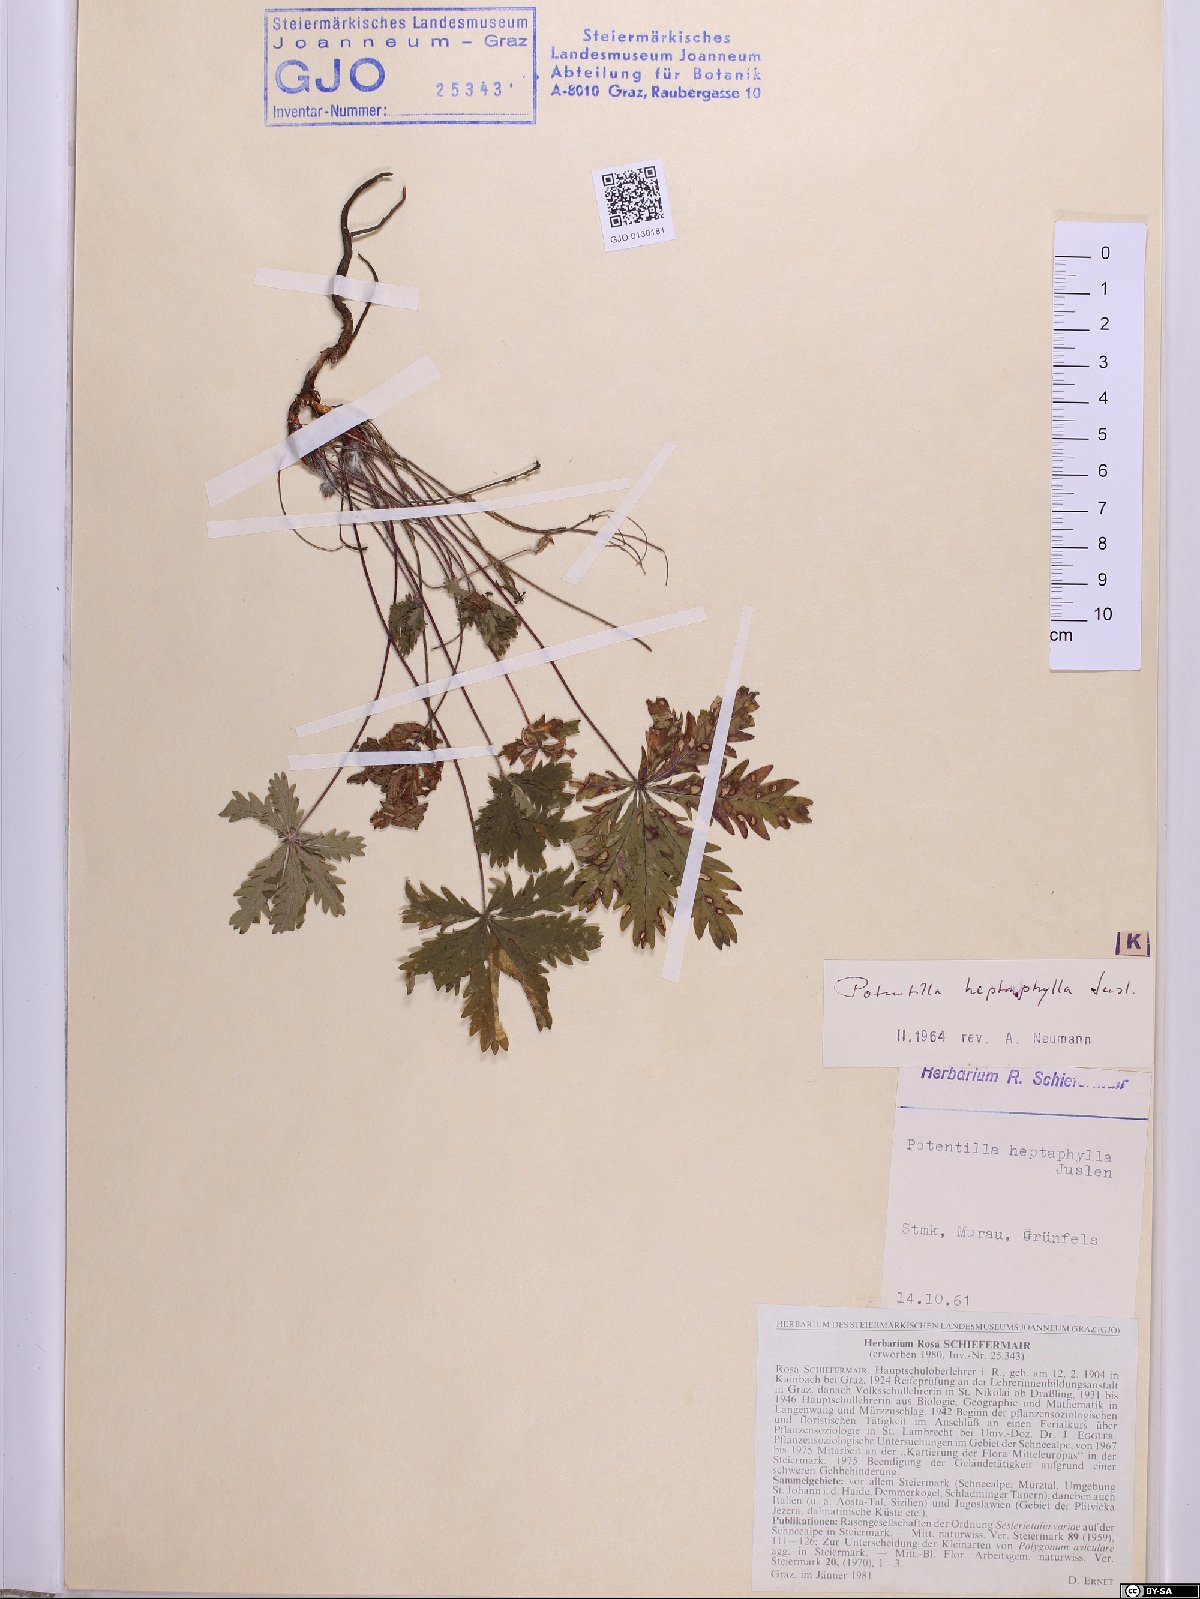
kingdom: Plantae
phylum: Tracheophyta
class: Magnoliopsida
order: Rosales
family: Rosaceae
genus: Potentilla
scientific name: Potentilla heptaphylla
